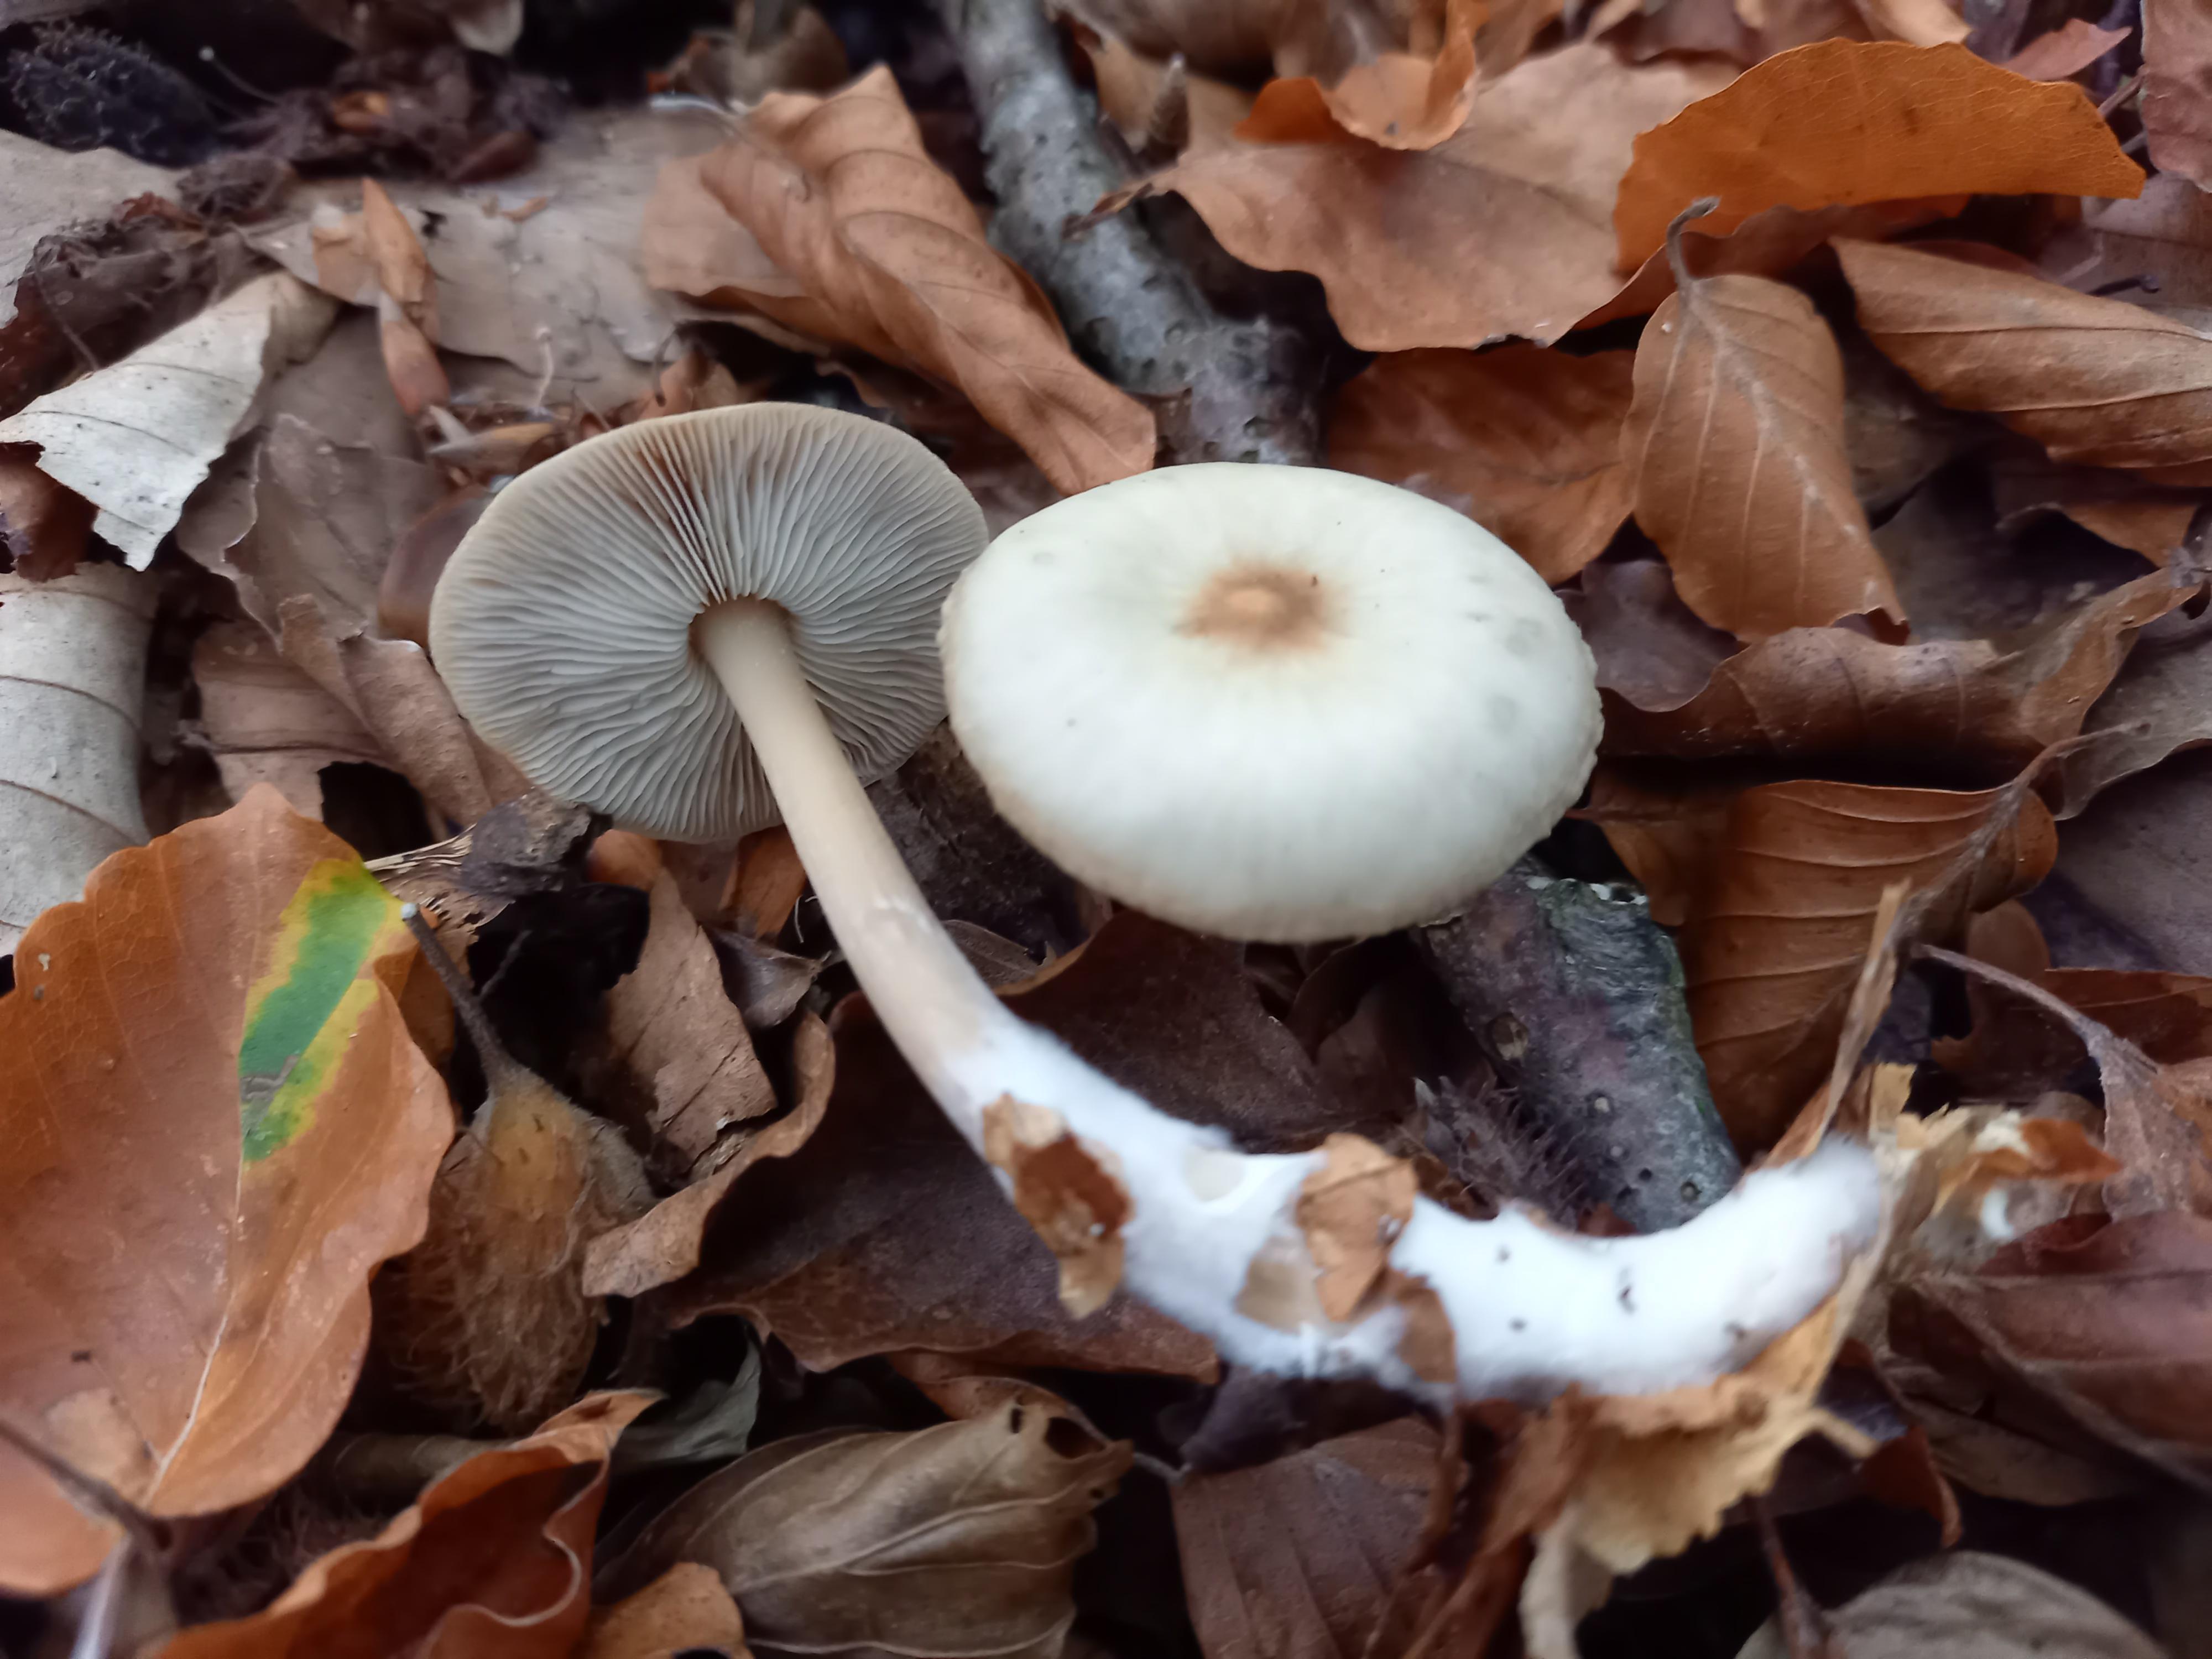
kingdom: Fungi
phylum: Basidiomycota
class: Agaricomycetes
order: Agaricales
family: Omphalotaceae
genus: Rhodocollybia
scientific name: Rhodocollybia asema
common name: horngrå fladhat
